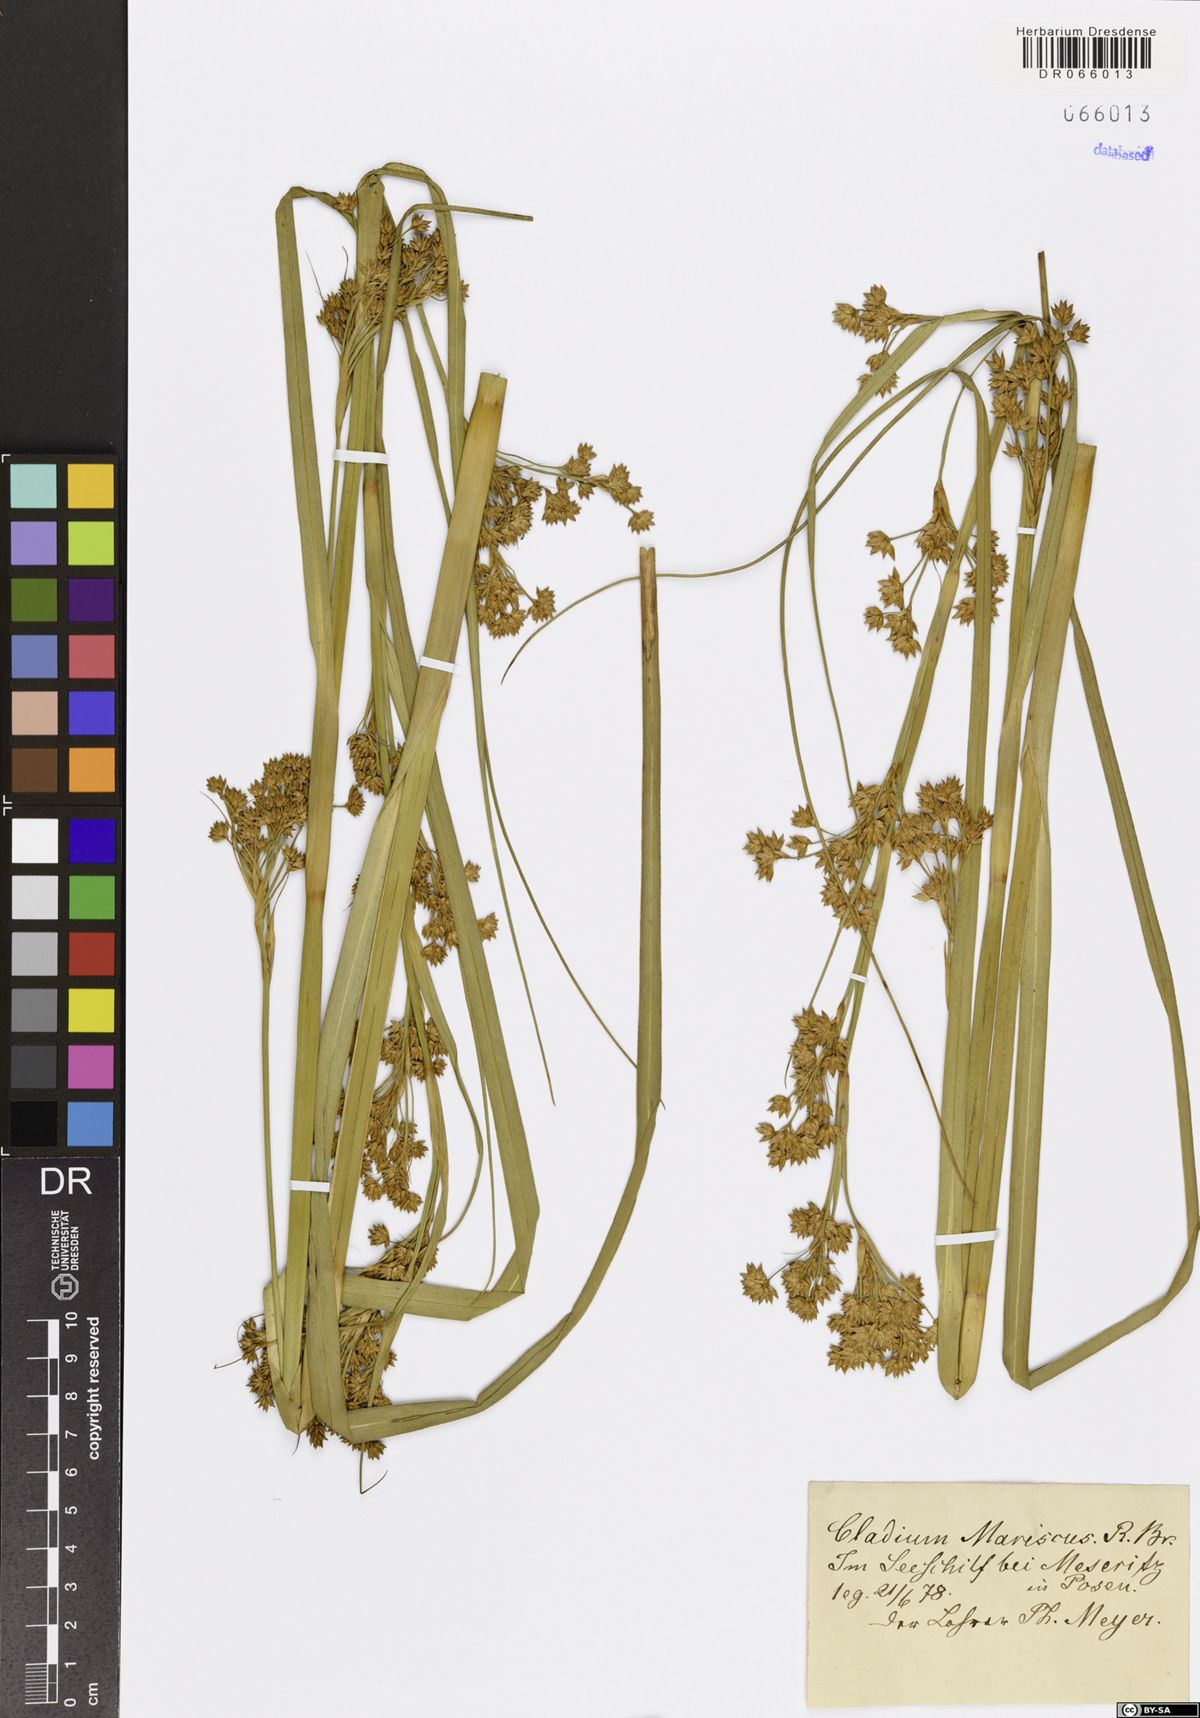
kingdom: Plantae
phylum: Tracheophyta
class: Liliopsida
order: Poales
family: Cyperaceae
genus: Cladium
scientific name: Cladium mariscus
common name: Great fen-sedge
